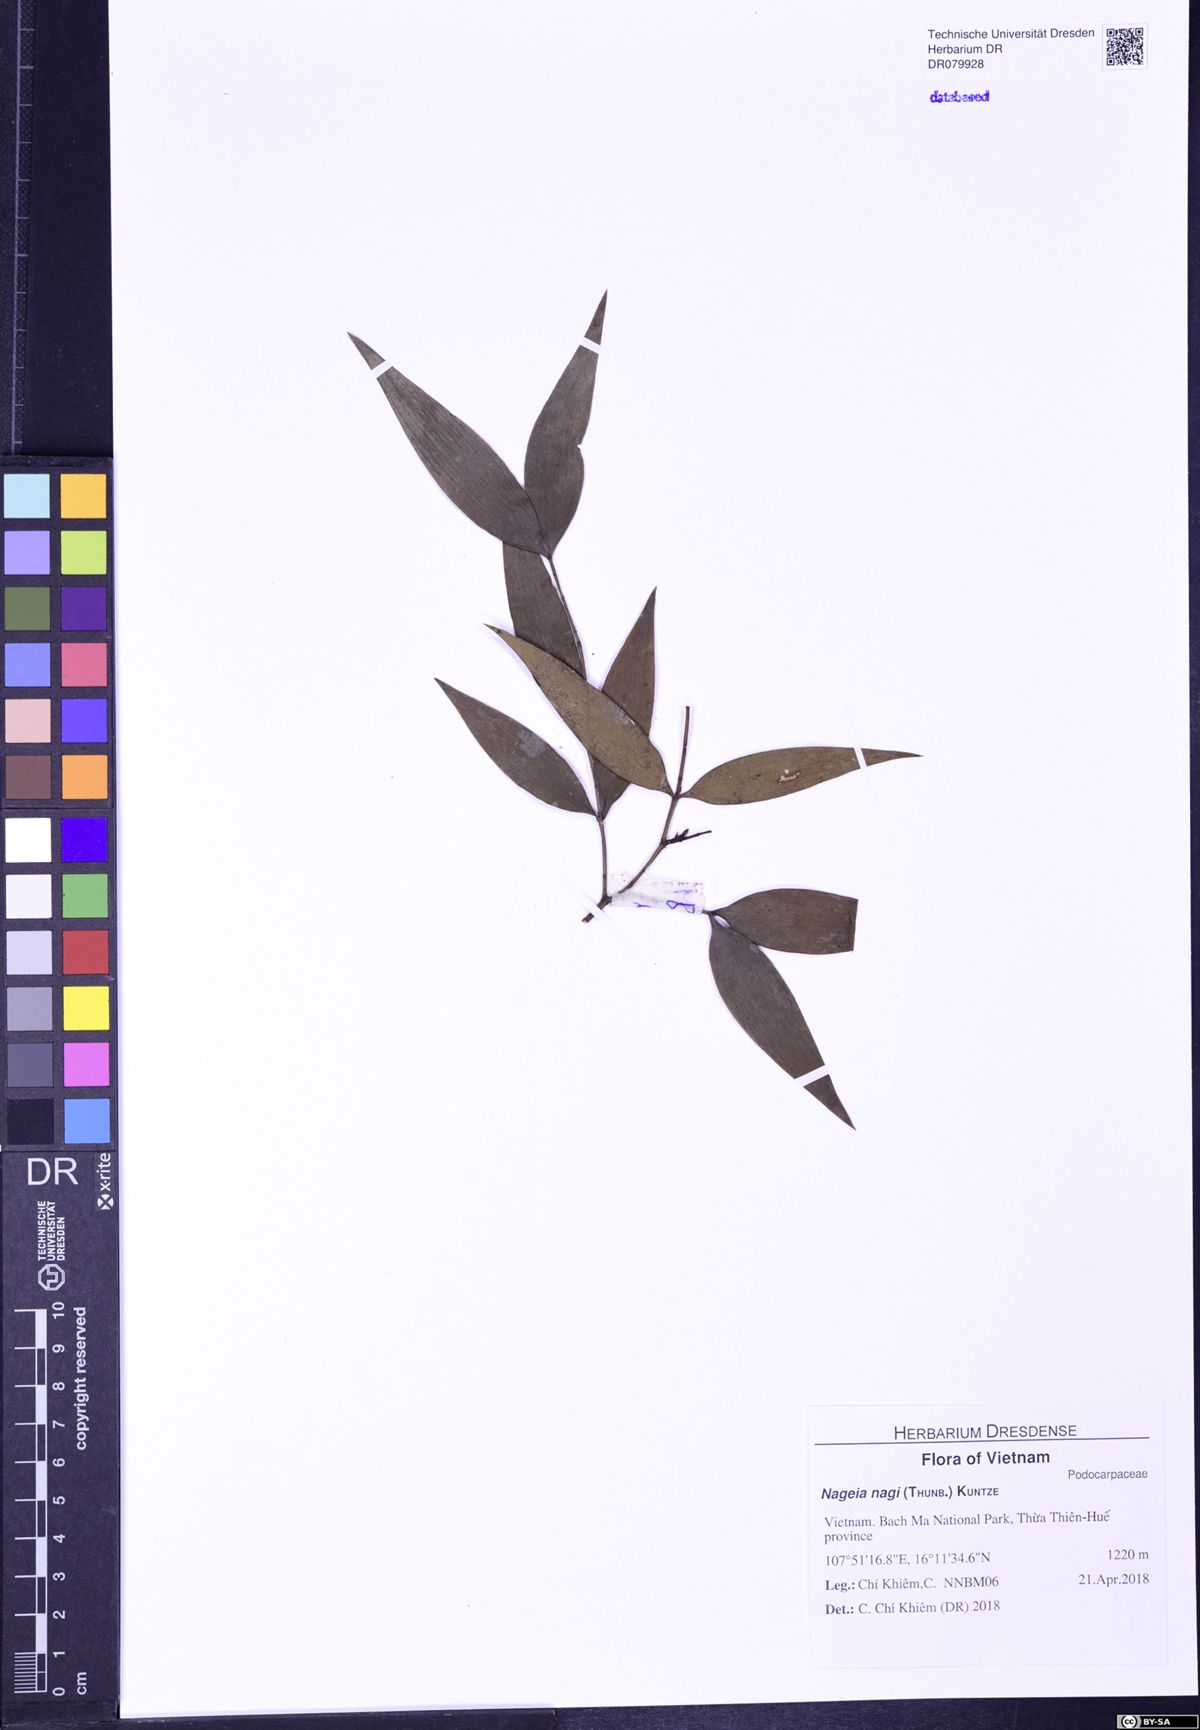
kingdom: Plantae
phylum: Tracheophyta
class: Pinopsida
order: Pinales
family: Podocarpaceae
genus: Nageia
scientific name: Nageia nagi
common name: Kaphal
